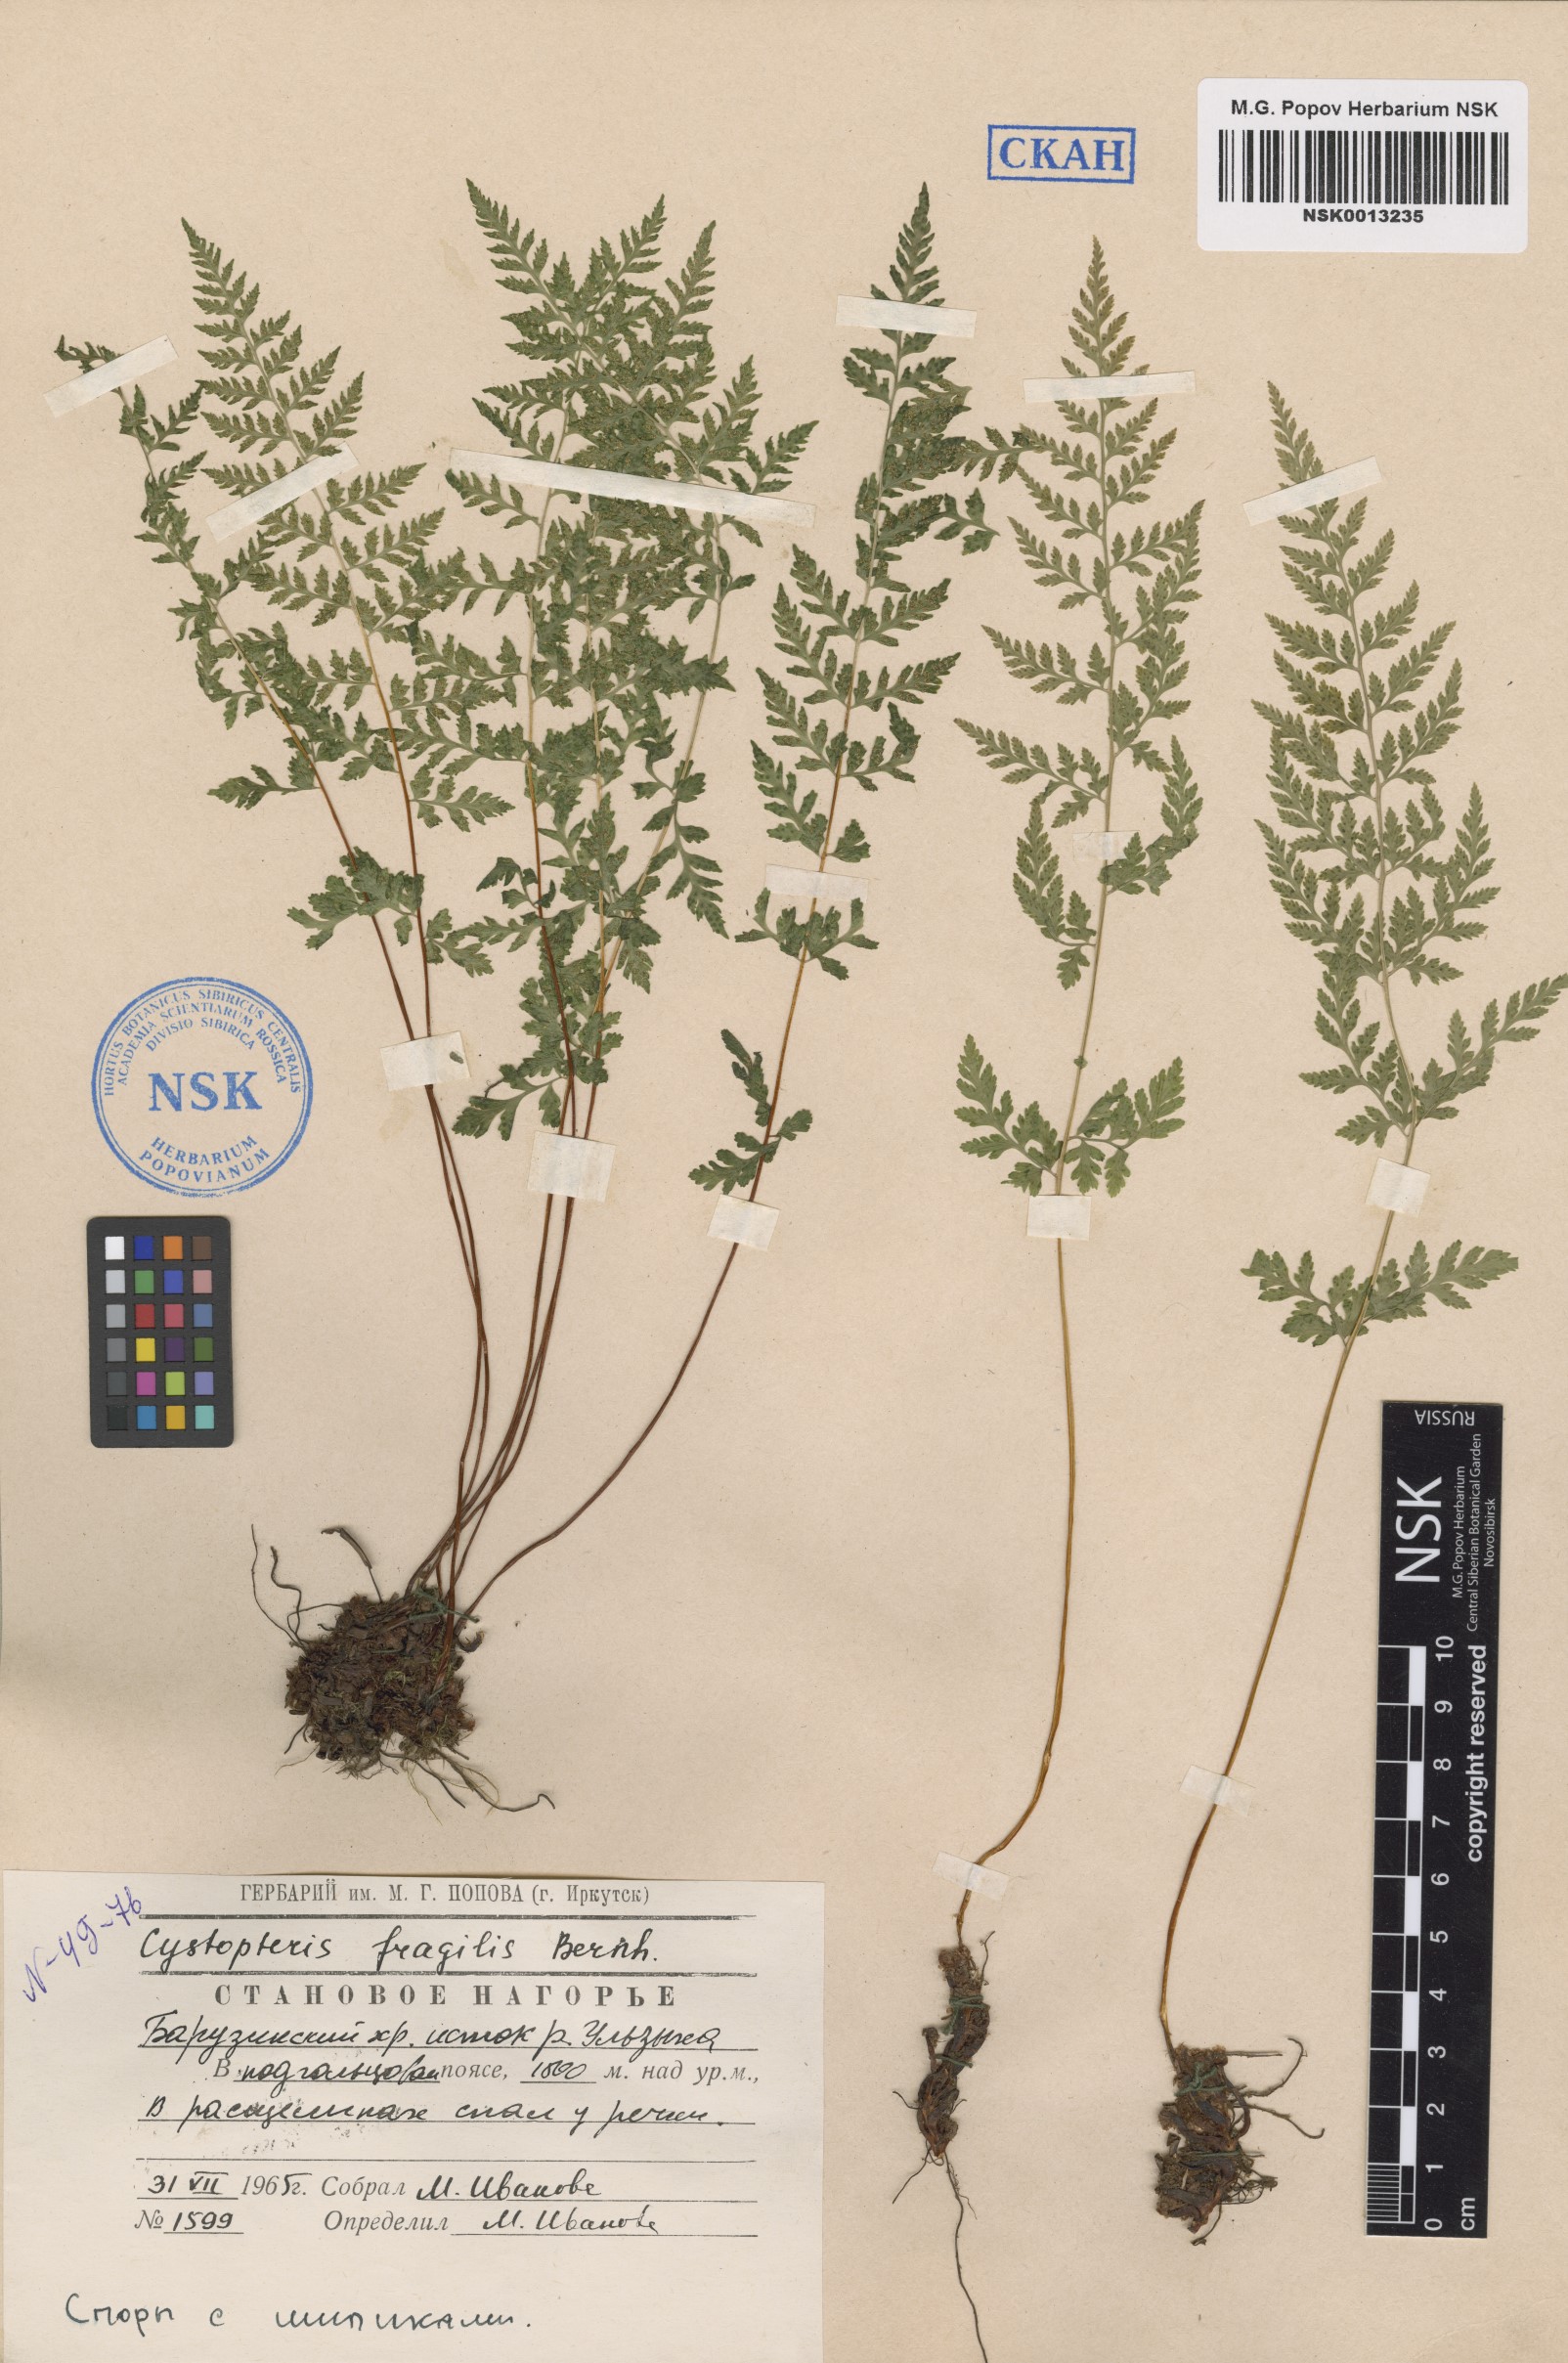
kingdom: Plantae
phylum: Tracheophyta
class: Polypodiopsida
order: Polypodiales
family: Cystopteridaceae
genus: Cystopteris
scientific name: Cystopteris fragilis
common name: Brittle bladder fern
